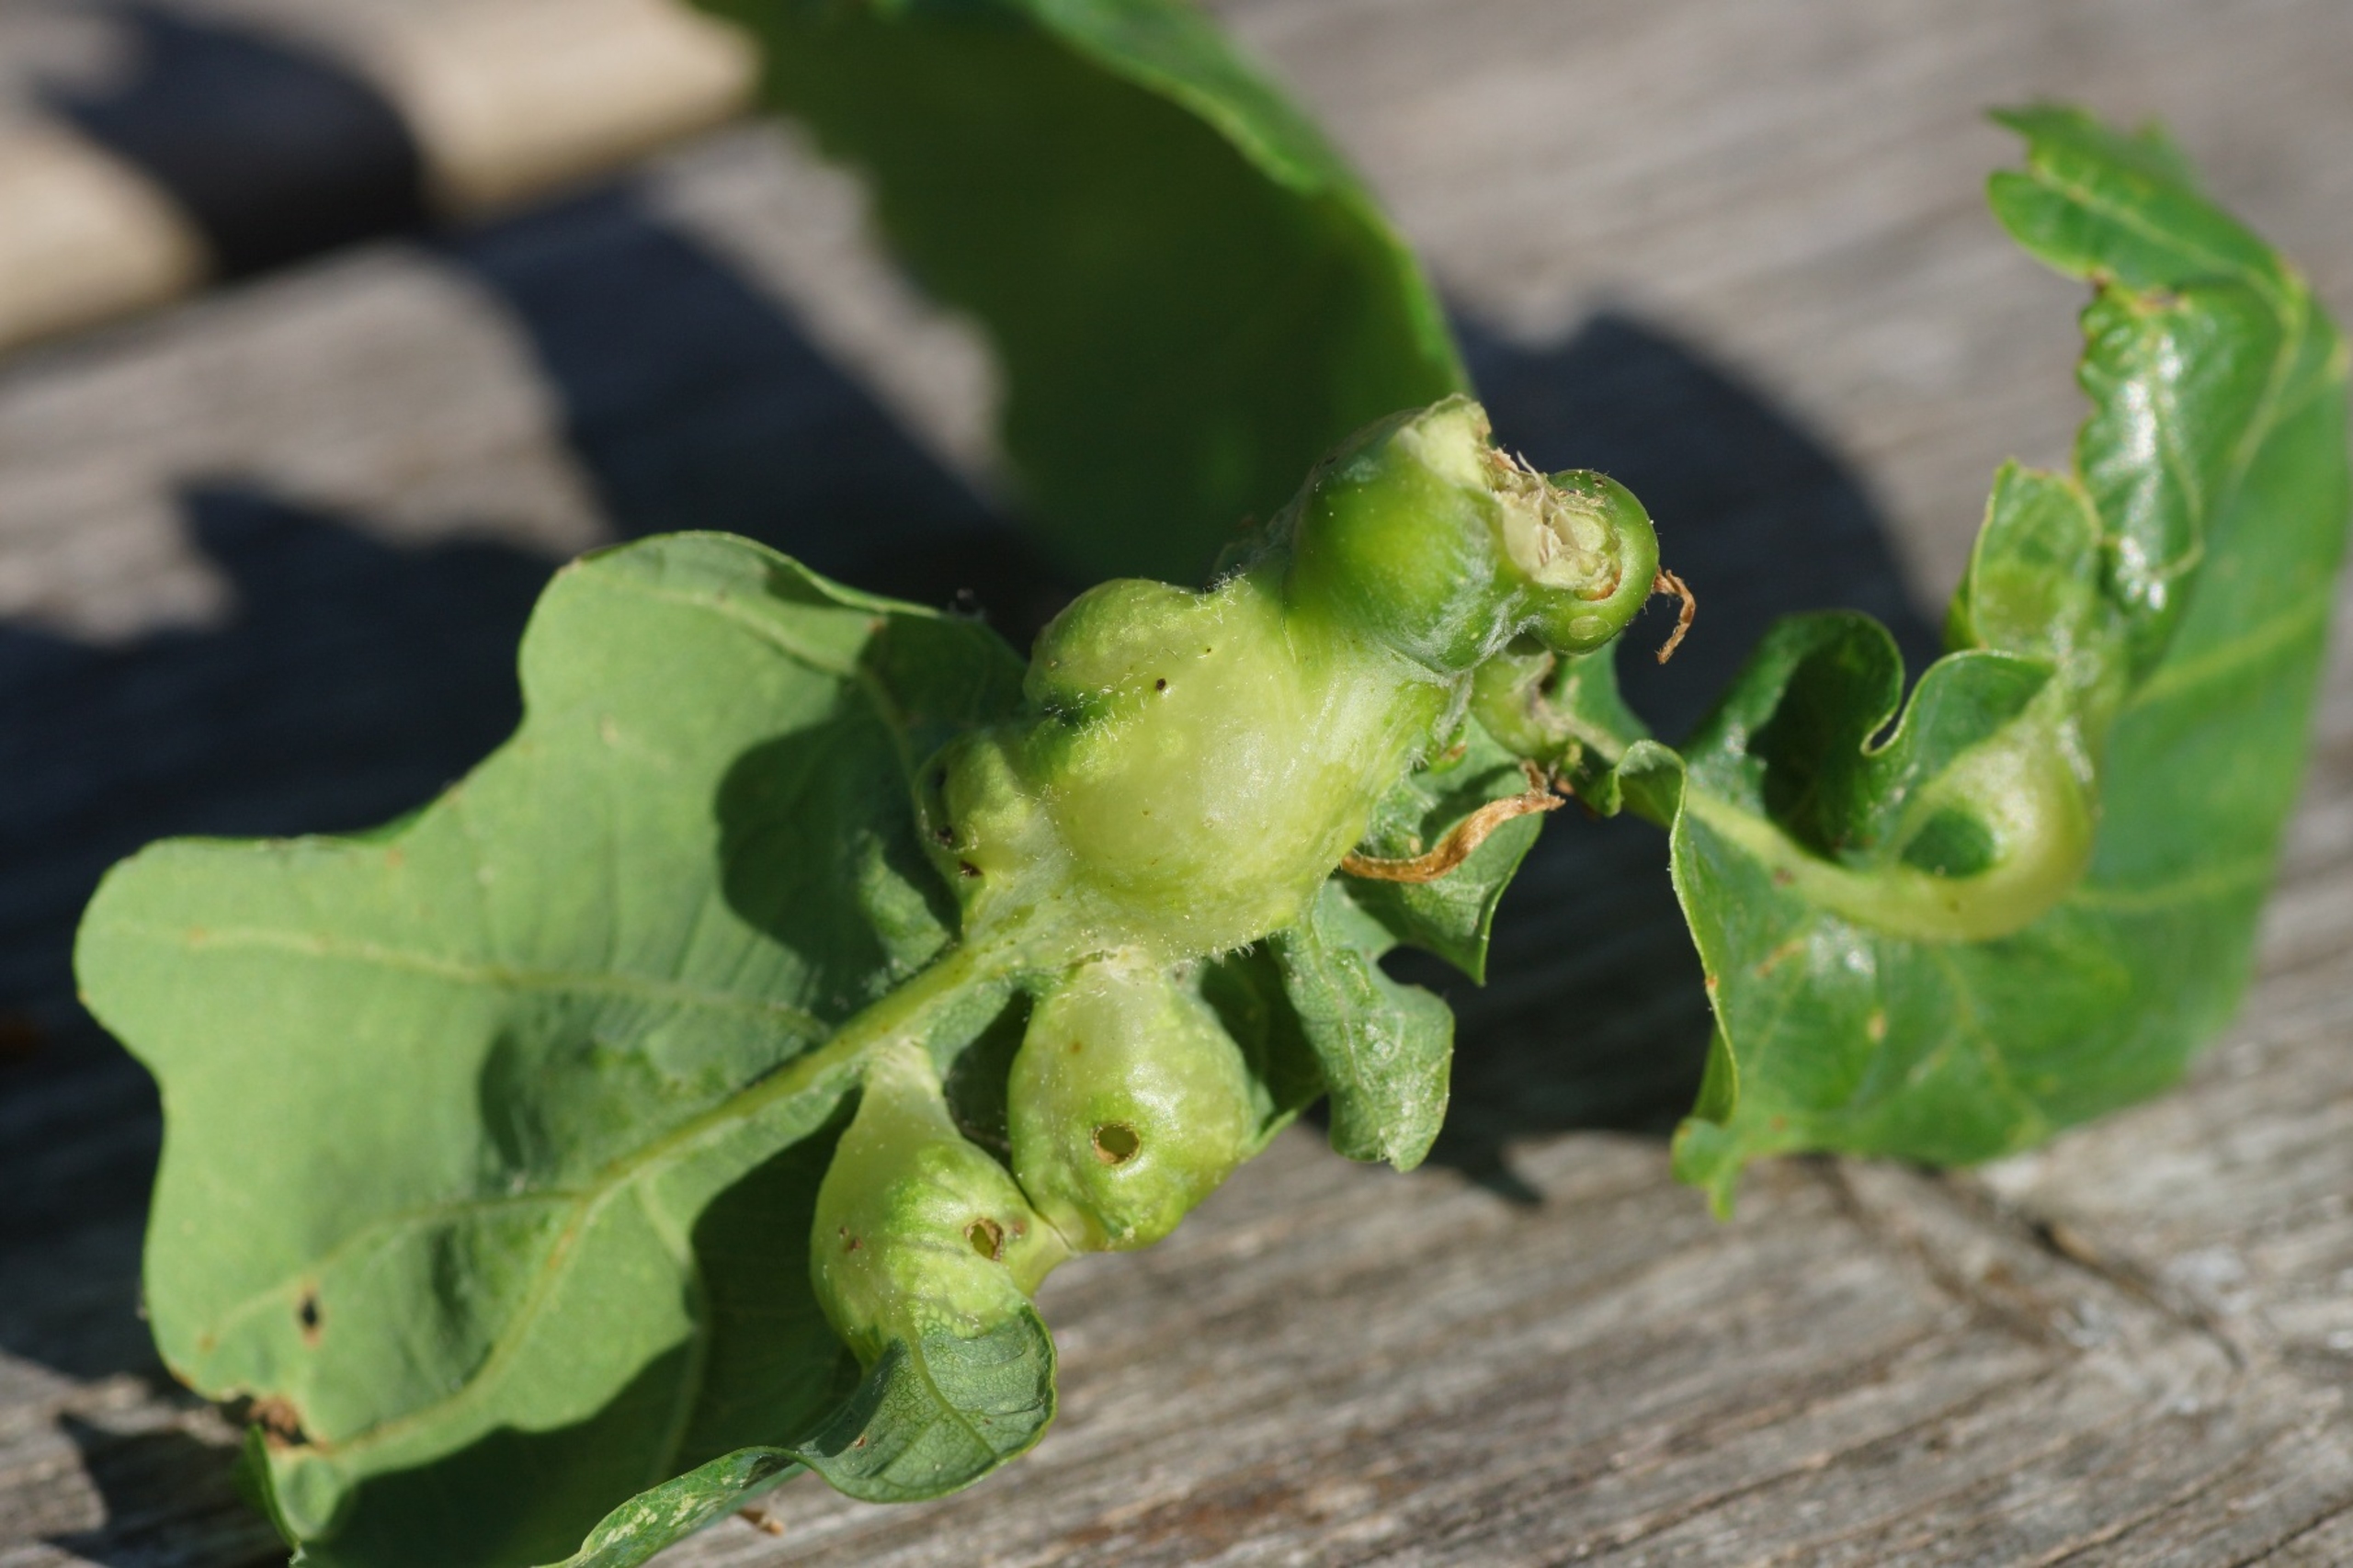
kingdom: Animalia
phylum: Arthropoda
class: Insecta
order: Hymenoptera
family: Cynipidae
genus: Andricus
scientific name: Andricus curvator
